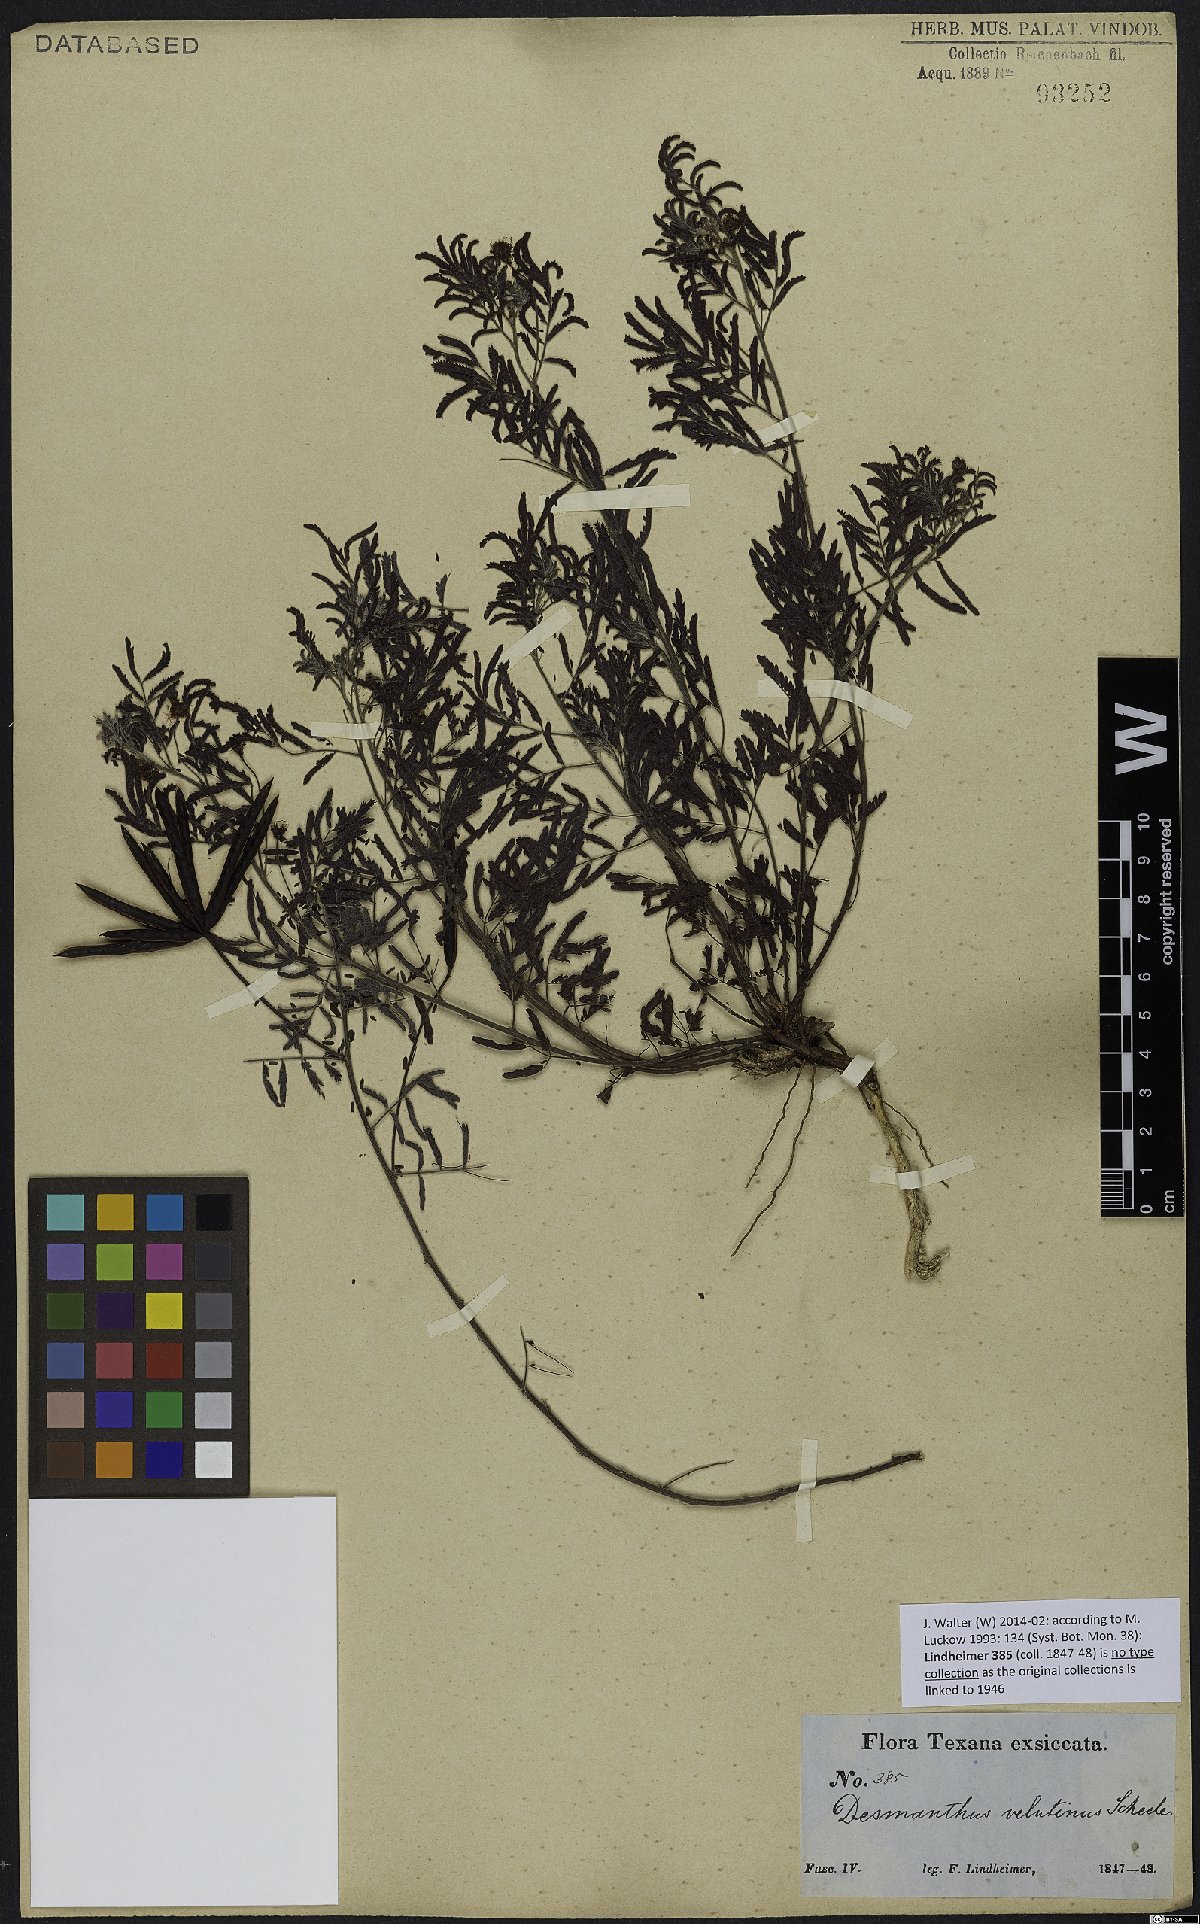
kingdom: Plantae
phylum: Tracheophyta
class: Magnoliopsida
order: Fabales
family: Fabaceae
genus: Desmanthus
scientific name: Desmanthus velutinus
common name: Velvet bundle-flower
